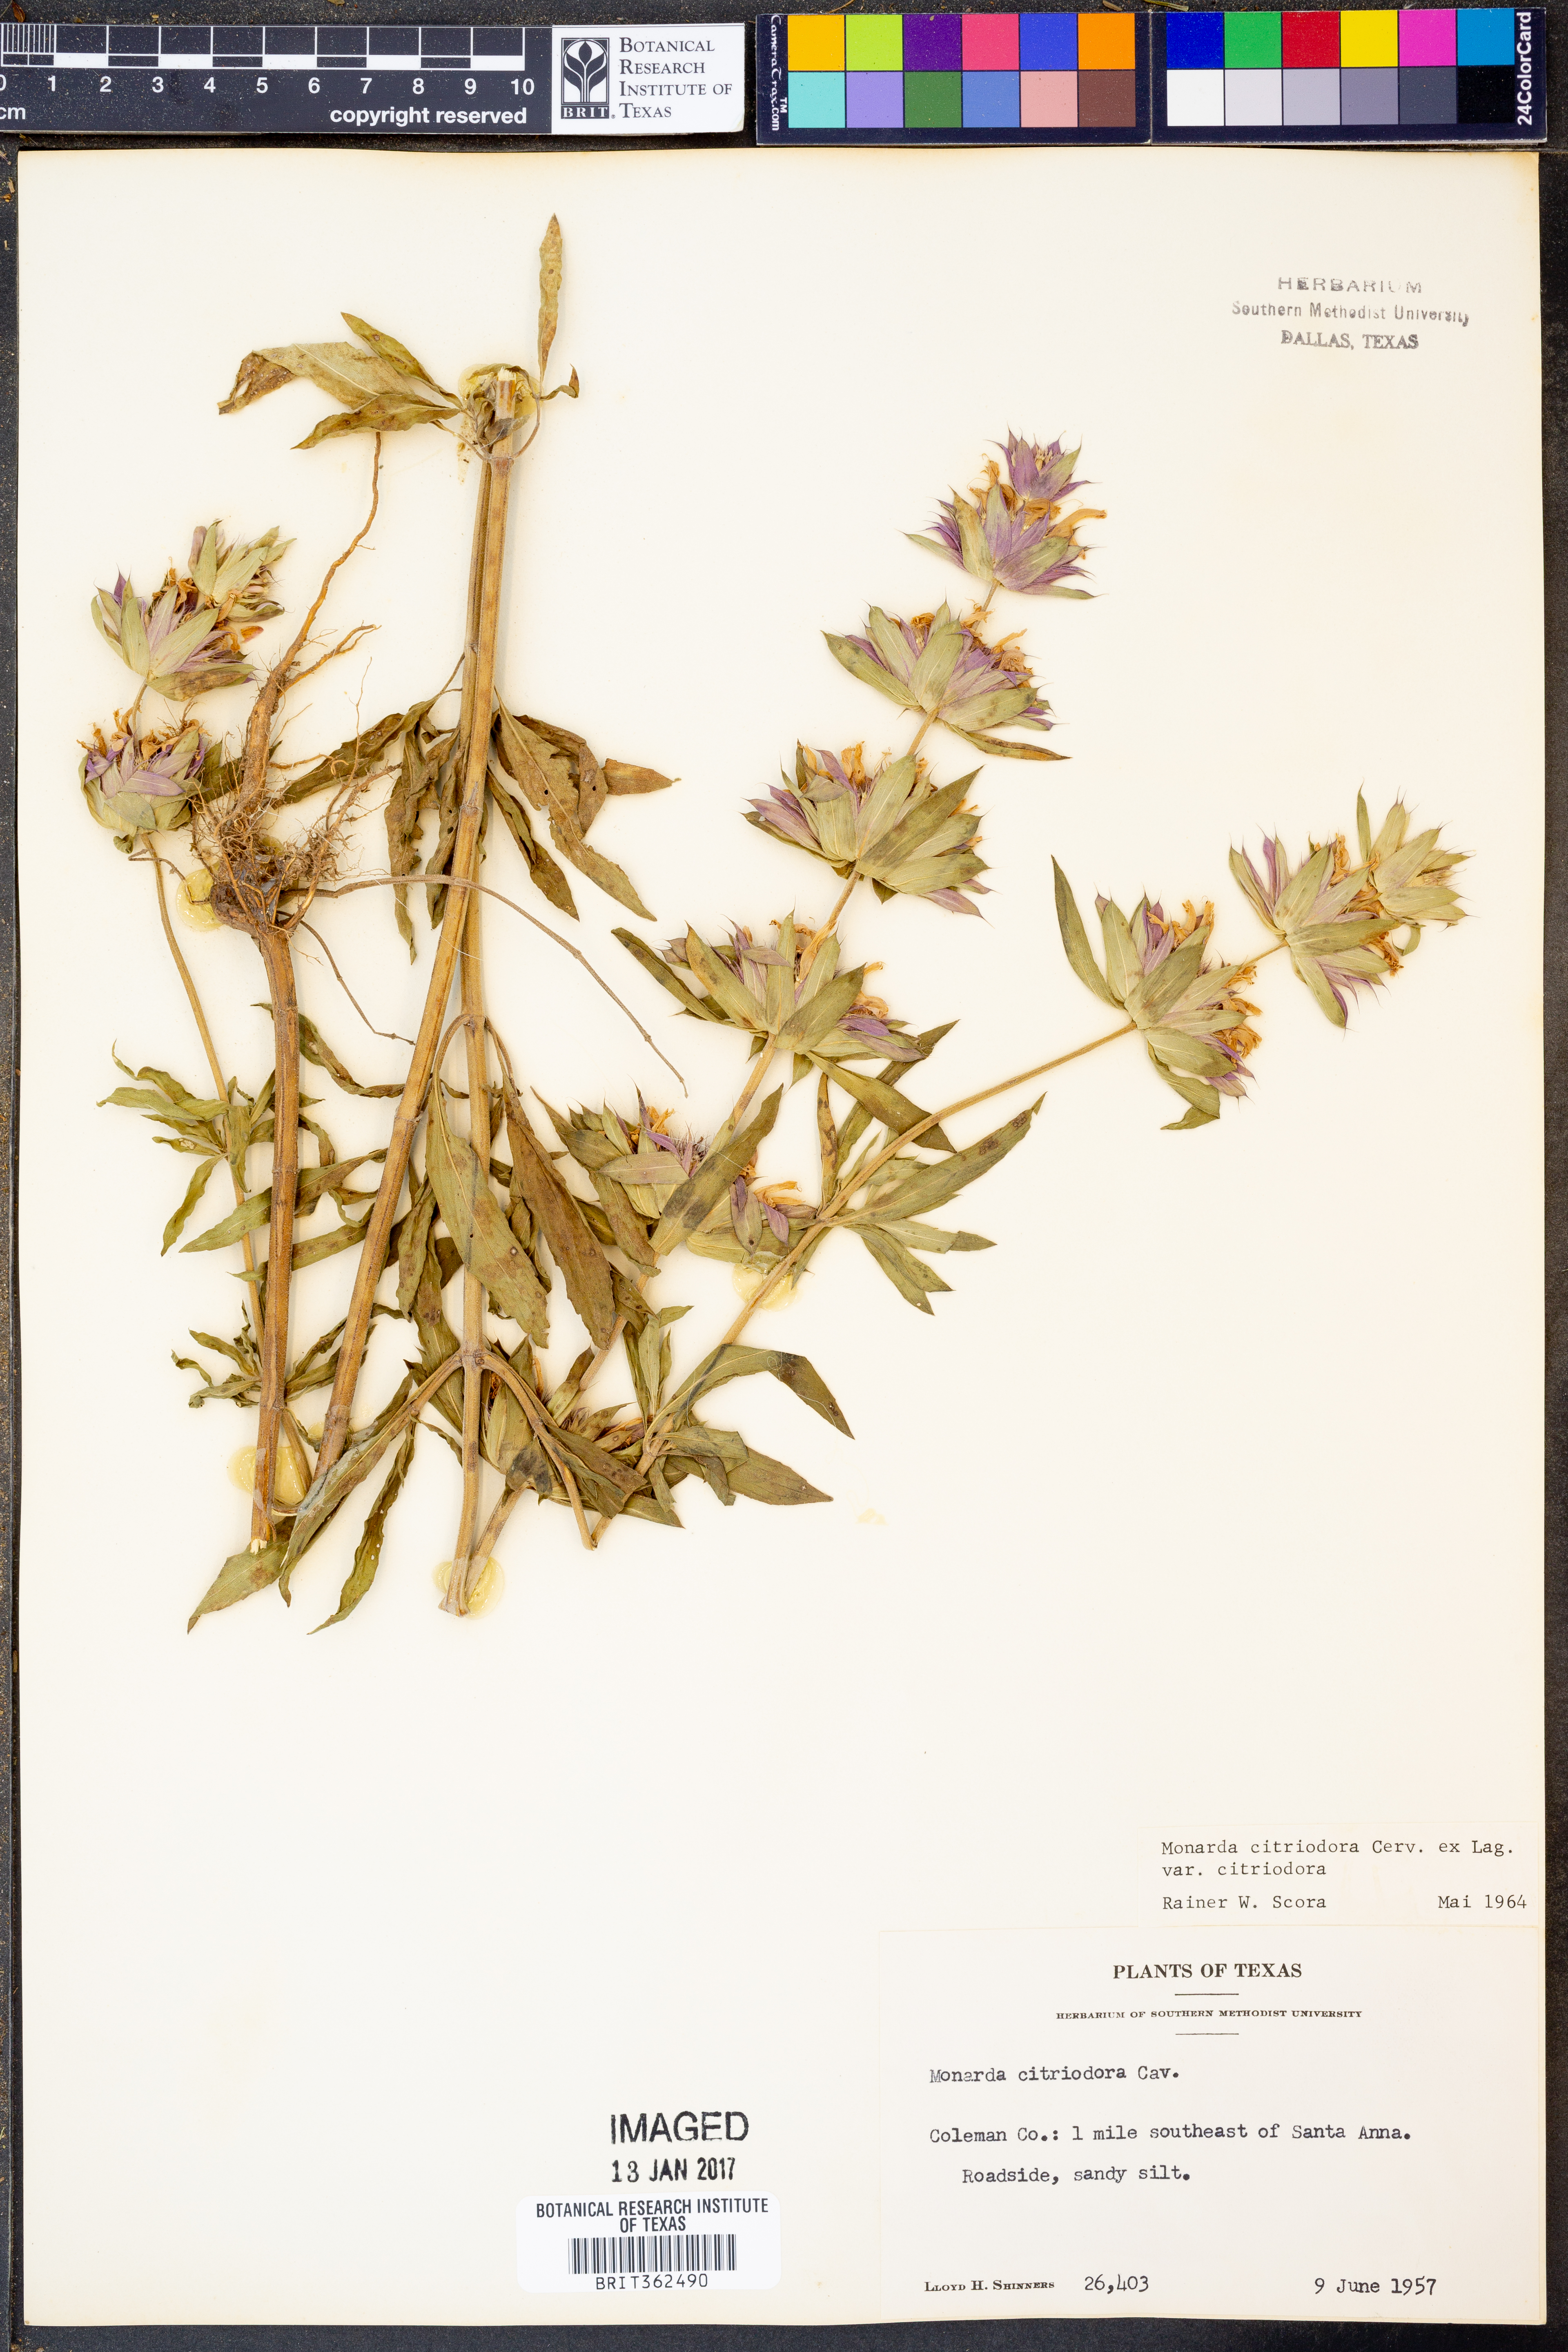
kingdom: Plantae
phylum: Tracheophyta
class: Magnoliopsida
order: Lamiales
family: Lamiaceae
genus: Monarda
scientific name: Monarda citriodora
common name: Lemon beebalm
